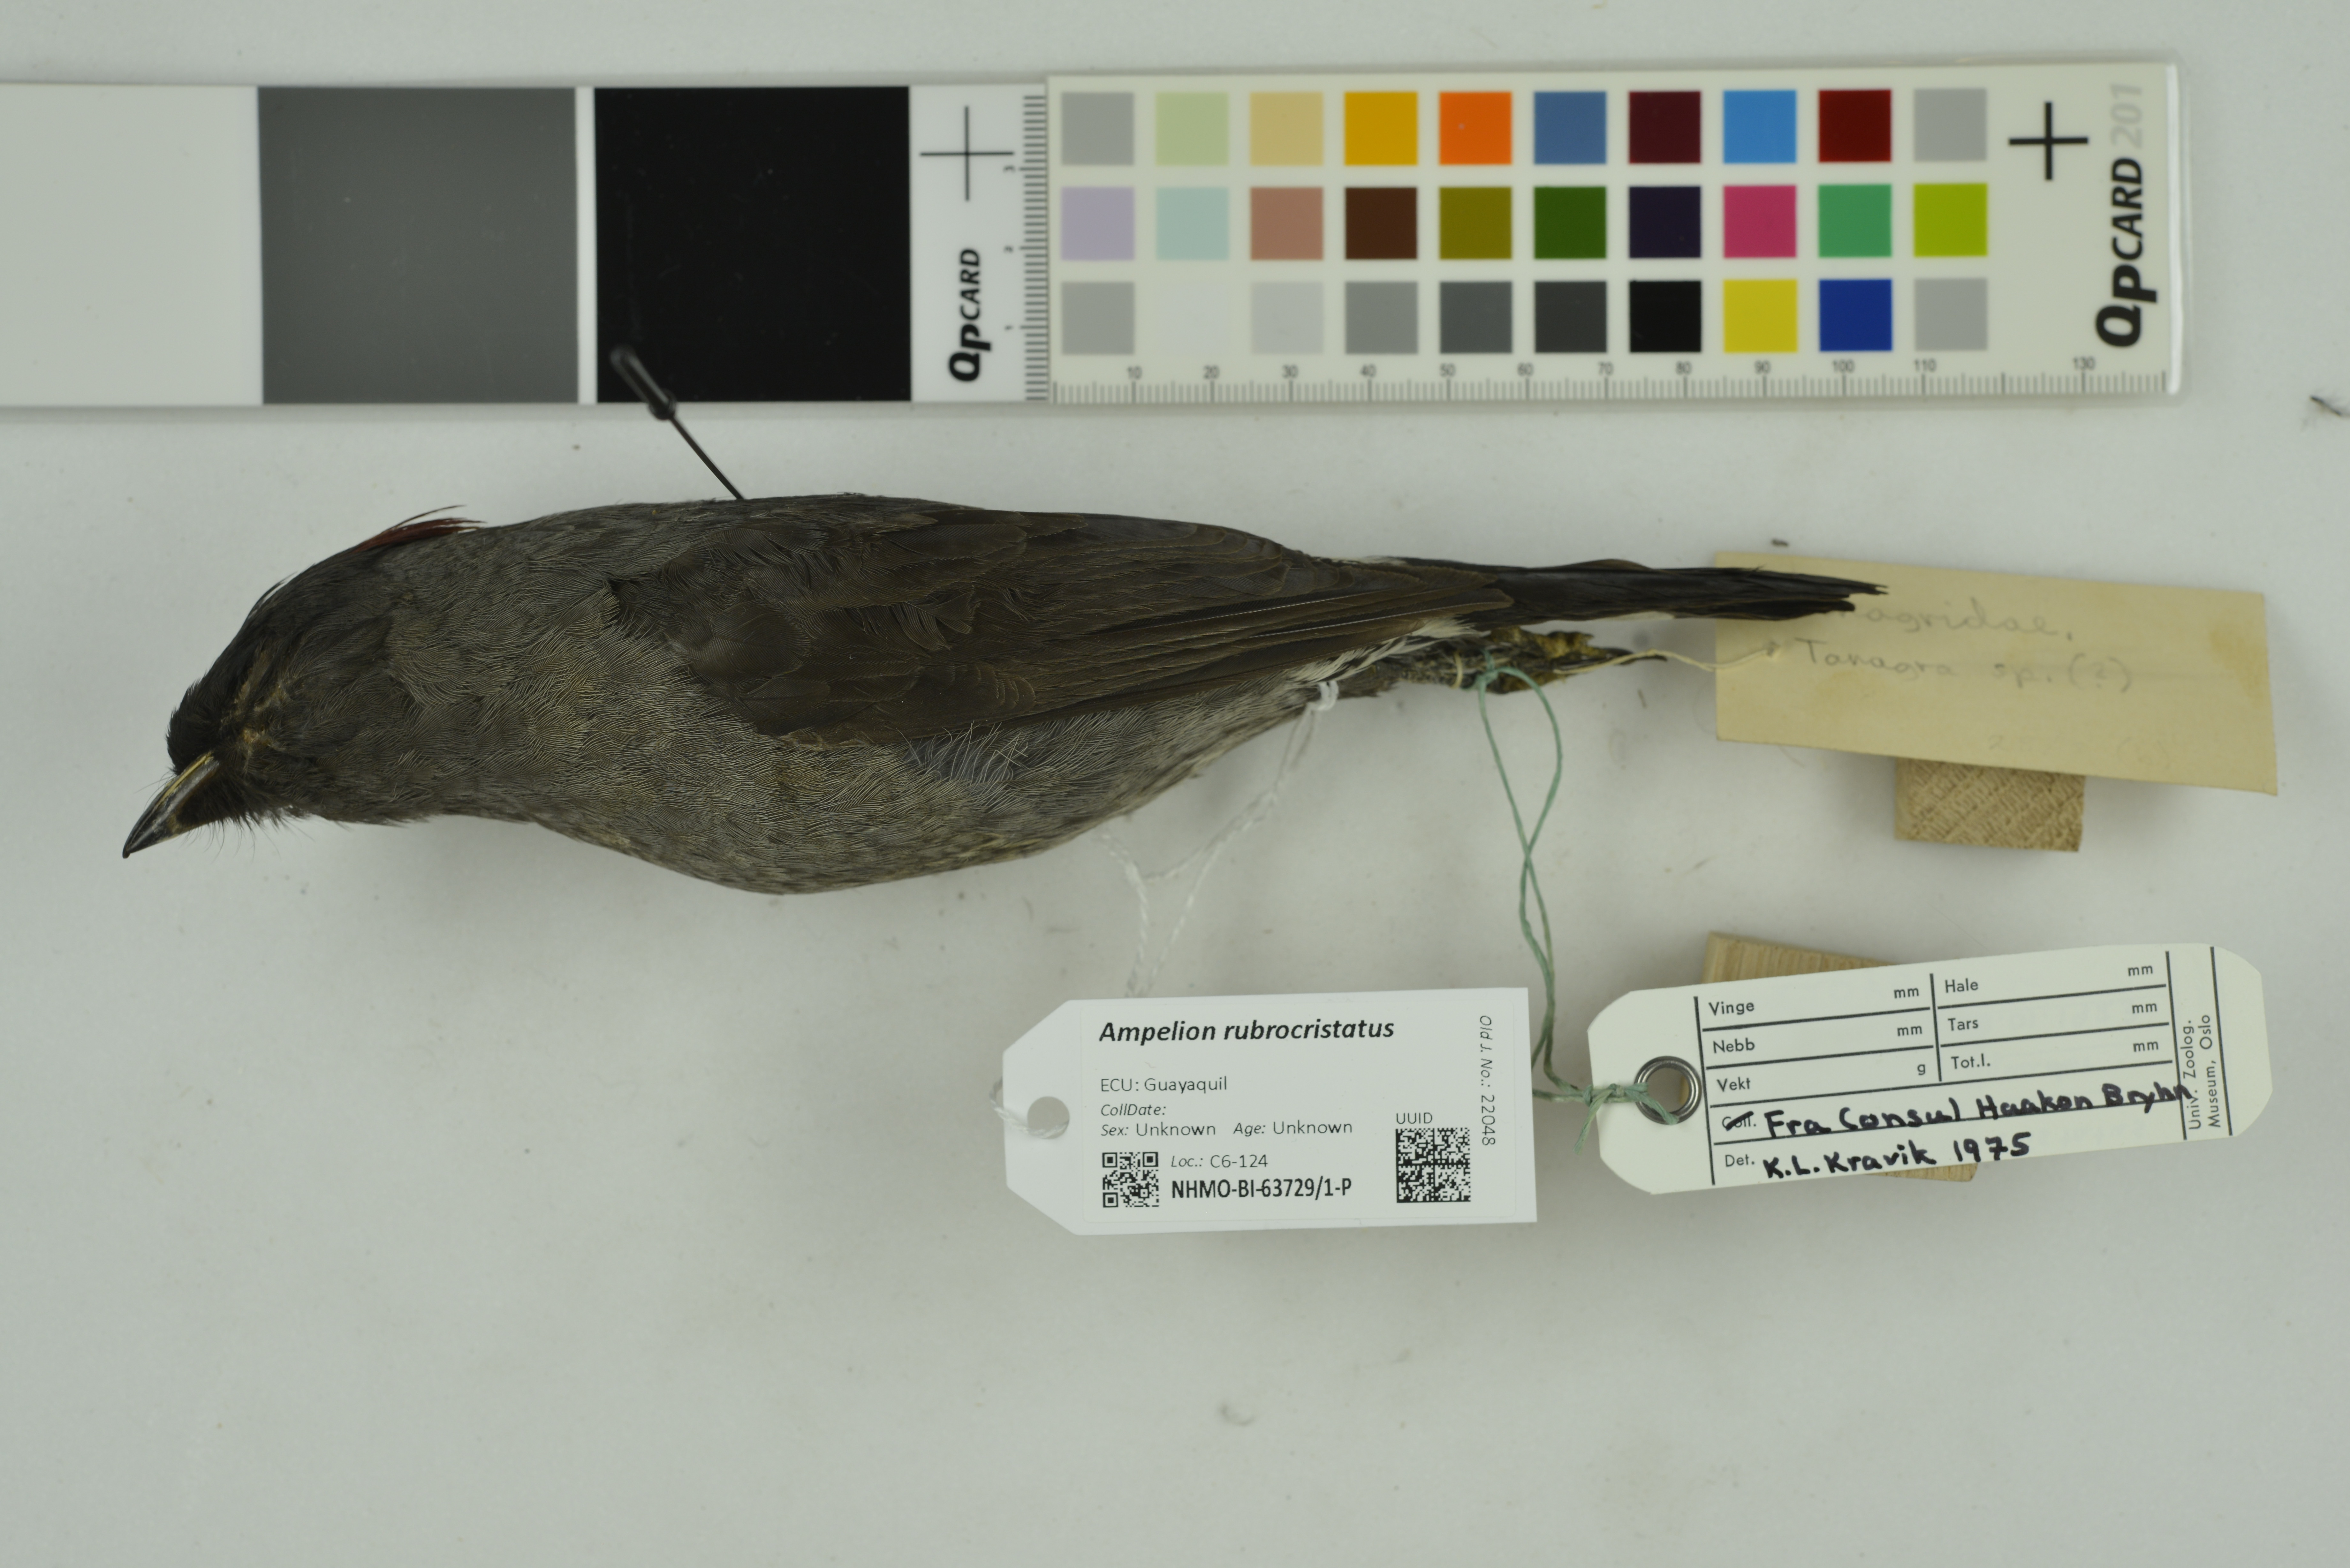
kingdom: Animalia
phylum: Chordata
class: Aves
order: Passeriformes
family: Cotingidae
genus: Ampelion
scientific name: Ampelion rubrocristatus
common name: Red-crested cotinga
